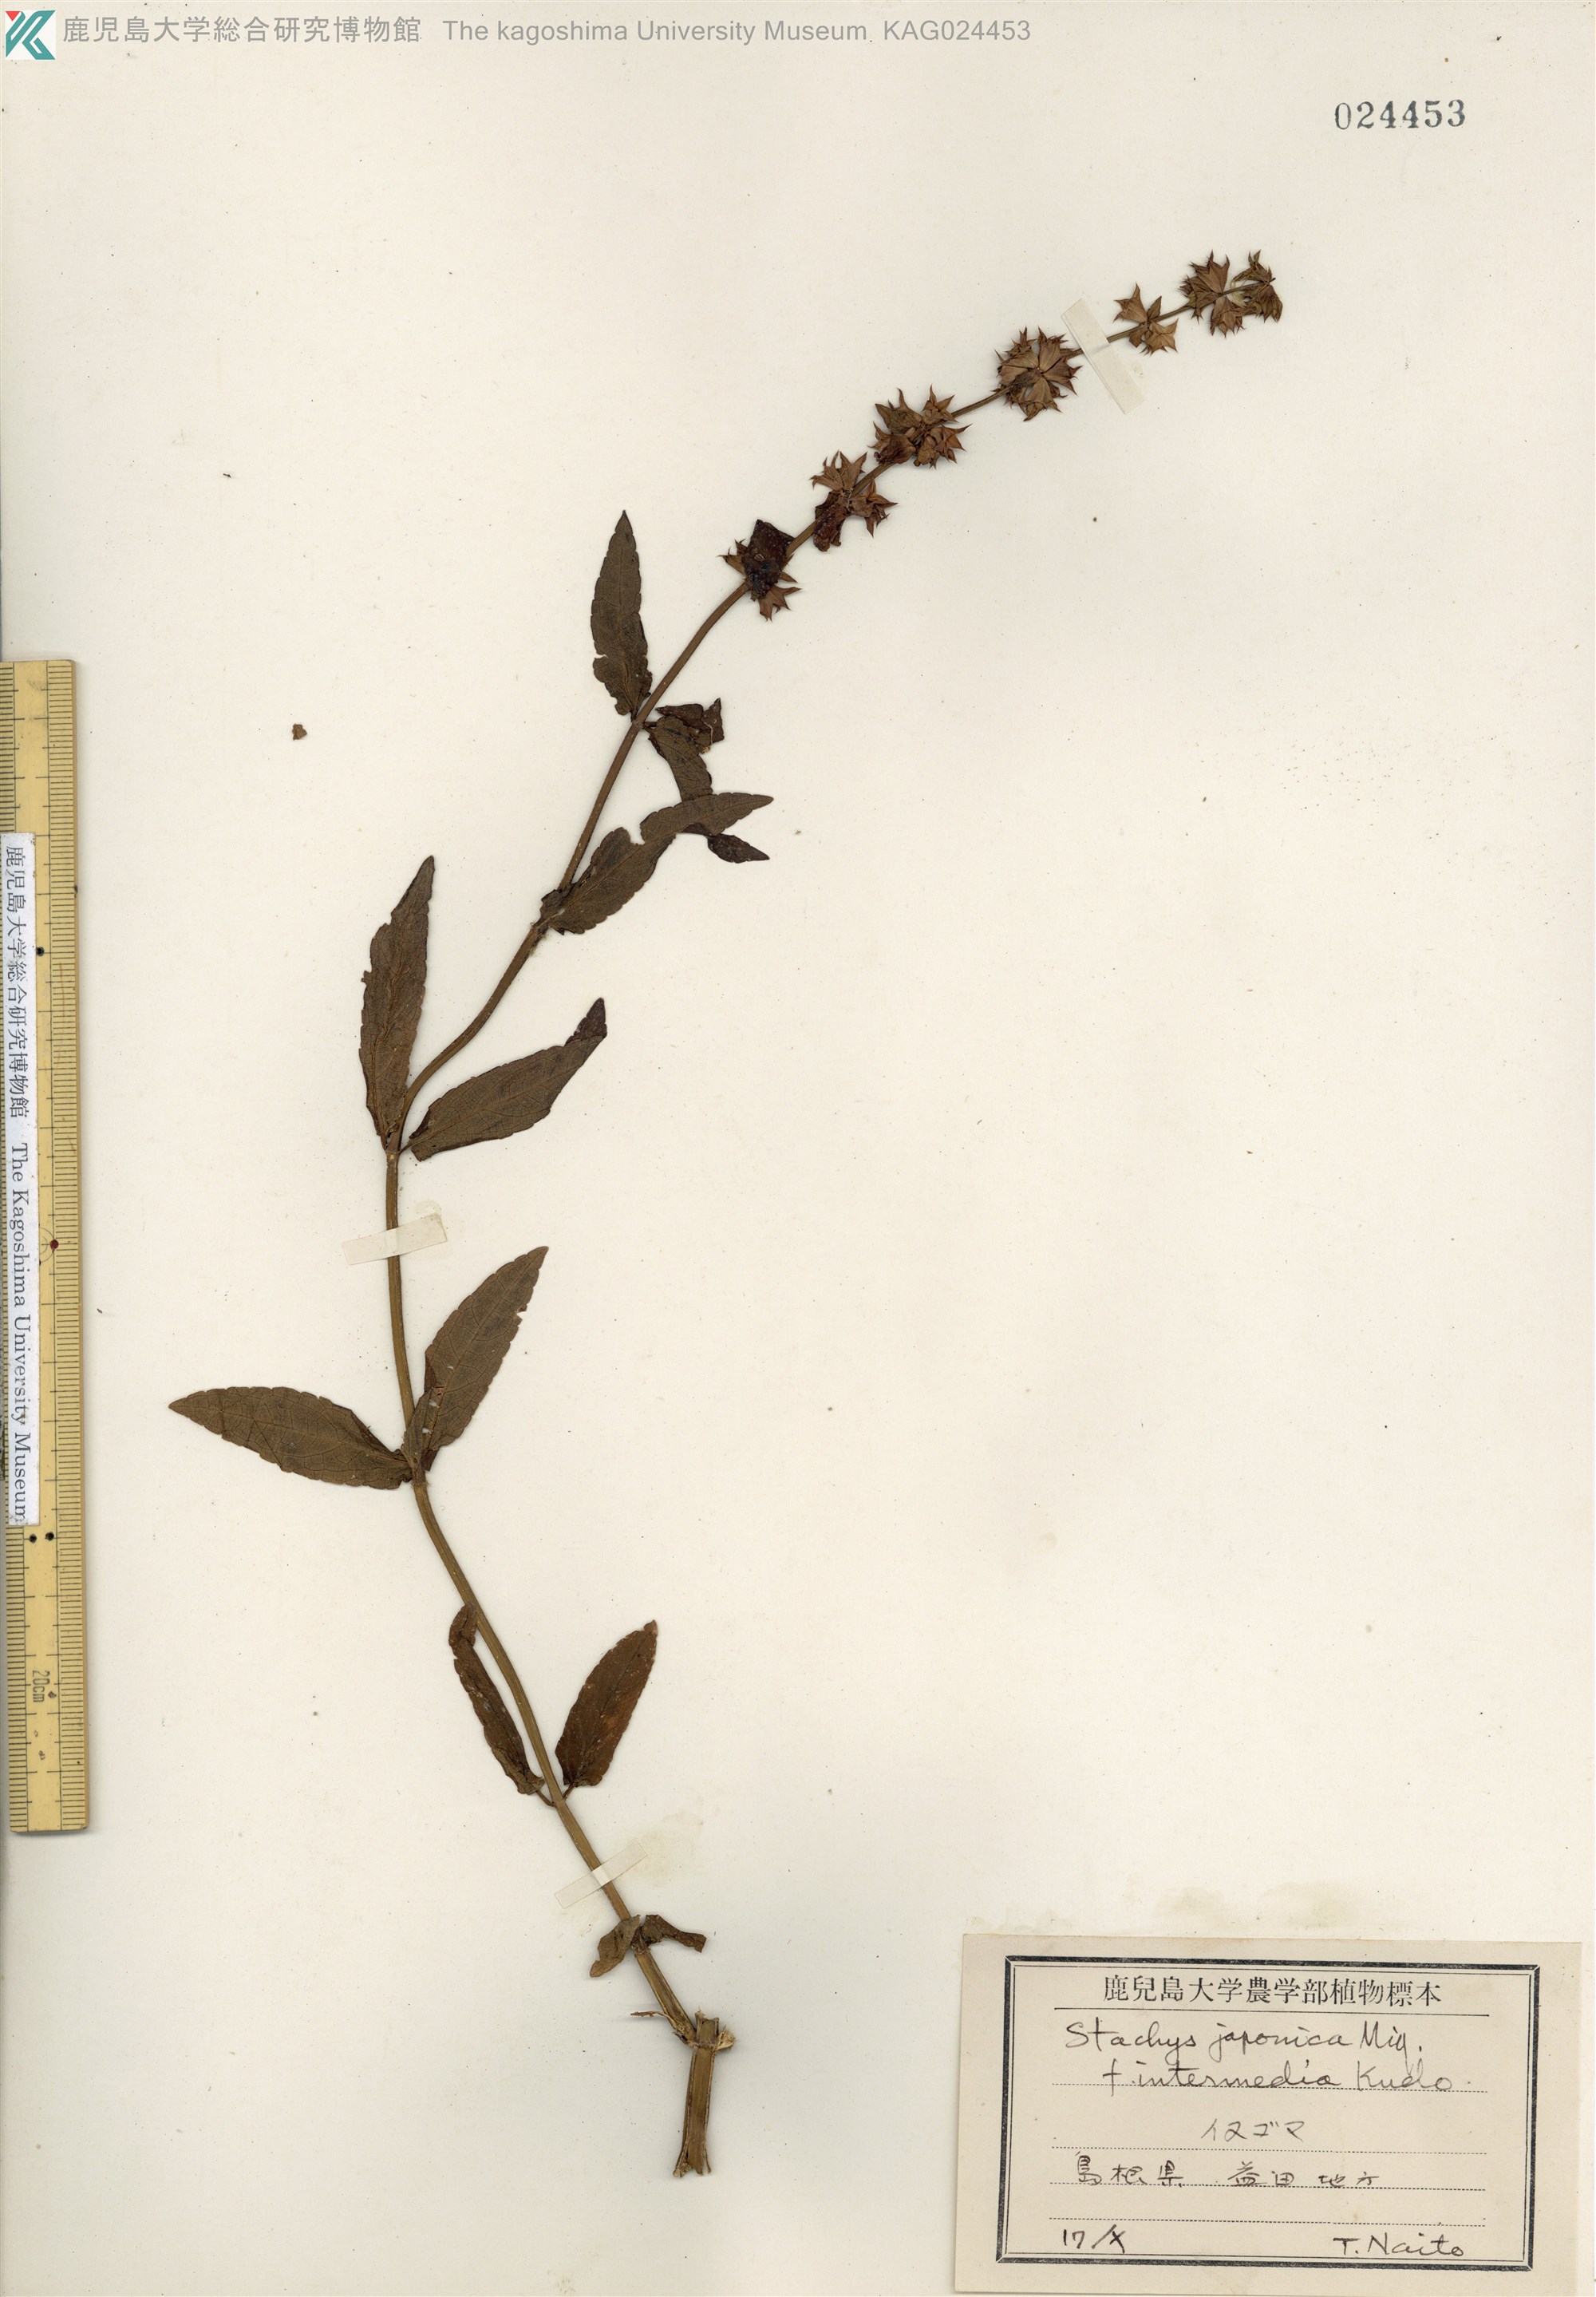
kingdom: Plantae
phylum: Tracheophyta
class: Magnoliopsida
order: Lamiales
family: Lamiaceae
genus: Stachys
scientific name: Stachys aspera
